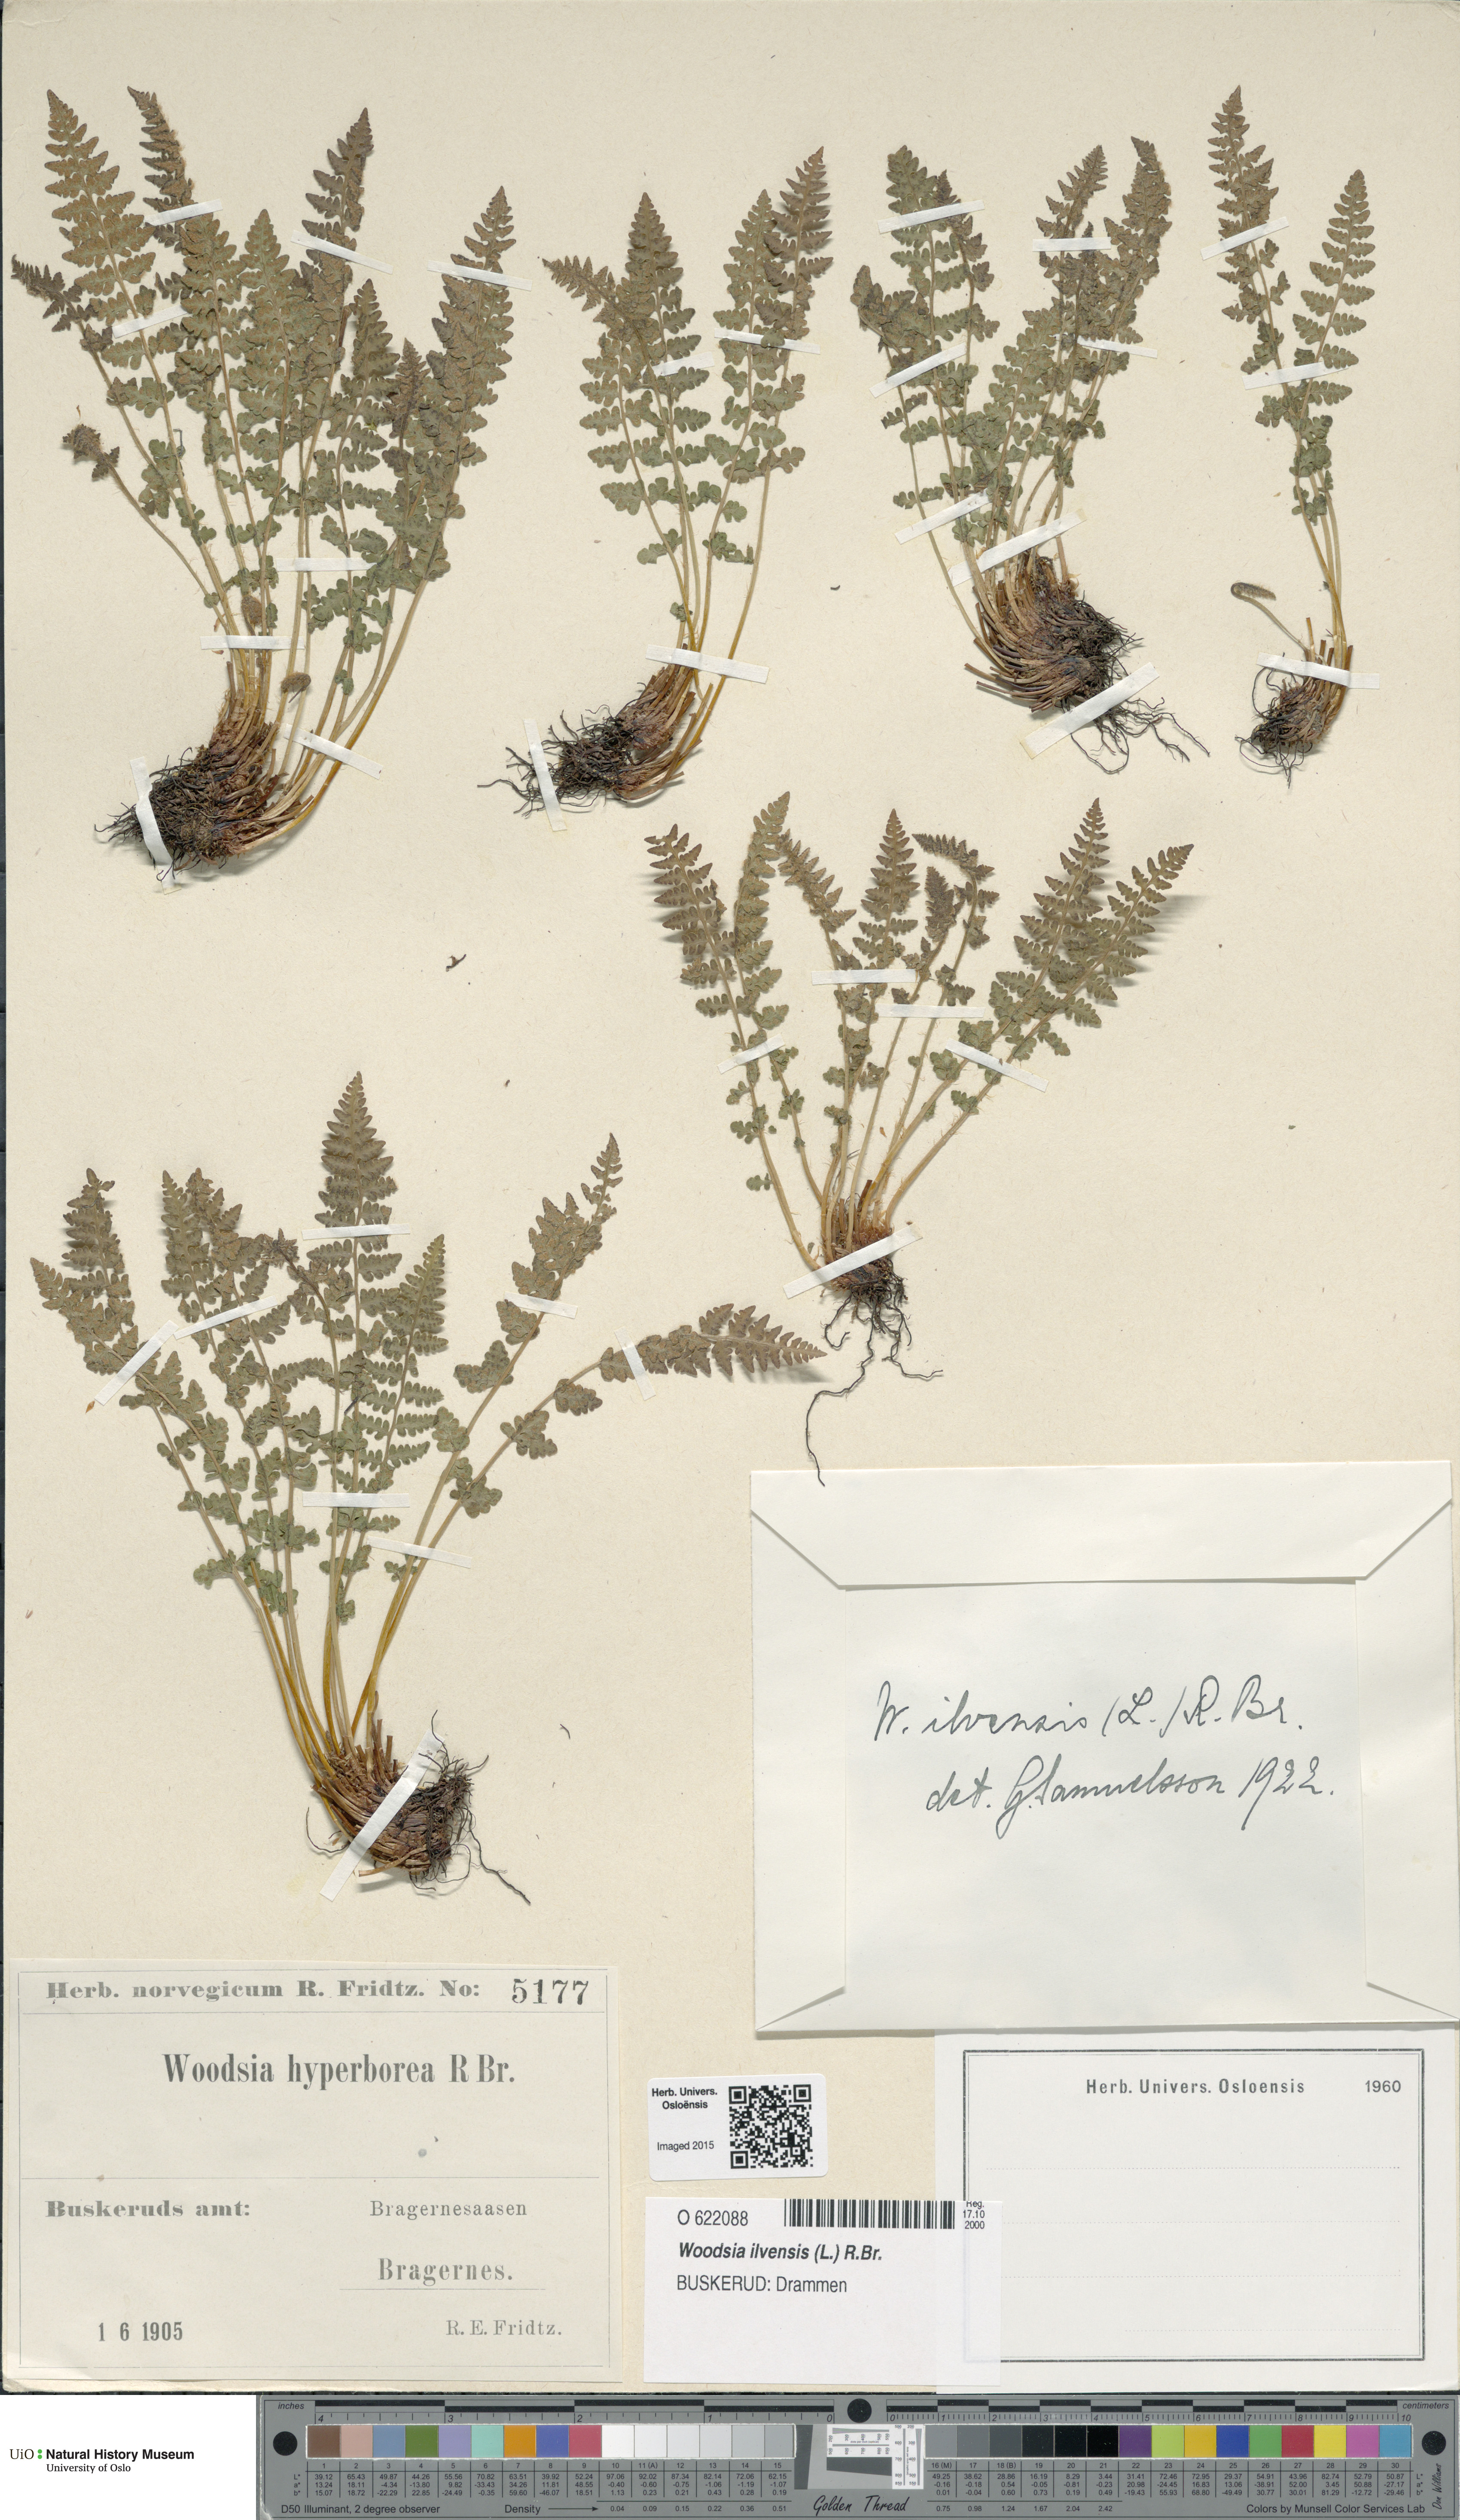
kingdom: Plantae
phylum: Tracheophyta
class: Polypodiopsida
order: Polypodiales
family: Woodsiaceae
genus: Woodsia
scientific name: Woodsia ilvensis
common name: Fragrant woodsia
